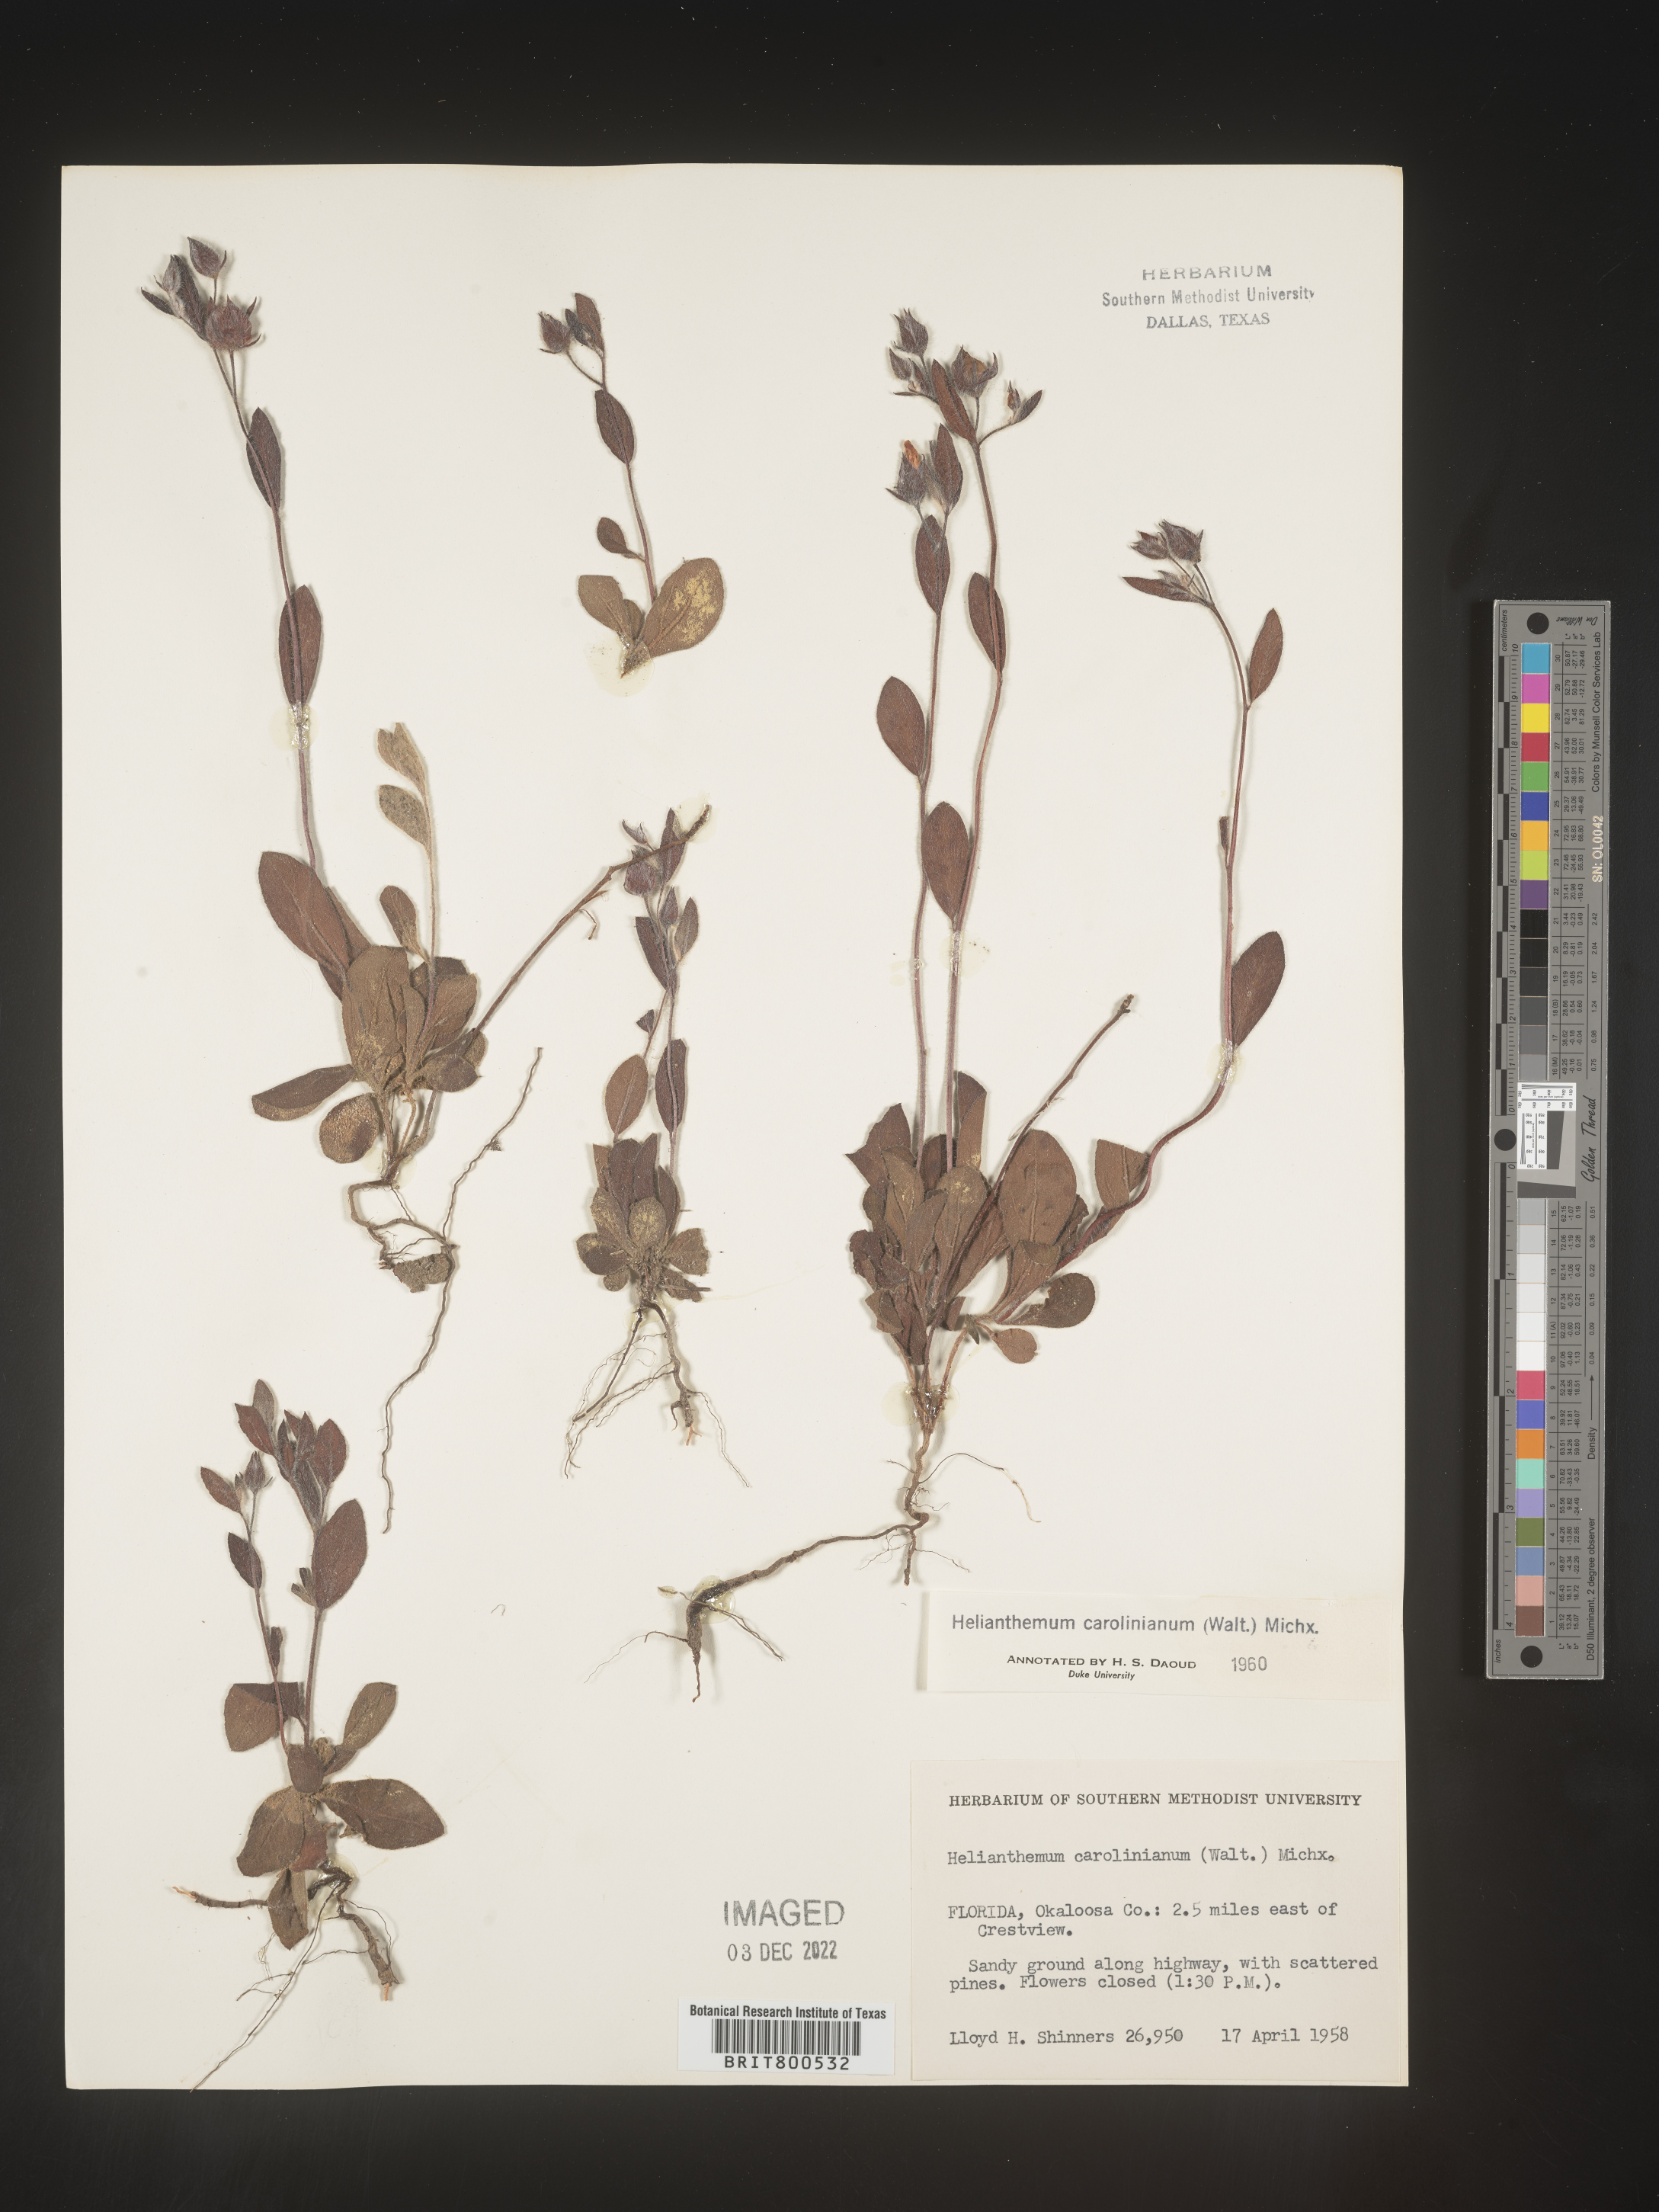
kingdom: Plantae
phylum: Tracheophyta
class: Magnoliopsida
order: Malvales
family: Cistaceae
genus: Crocanthemum
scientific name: Crocanthemum carolinianum
